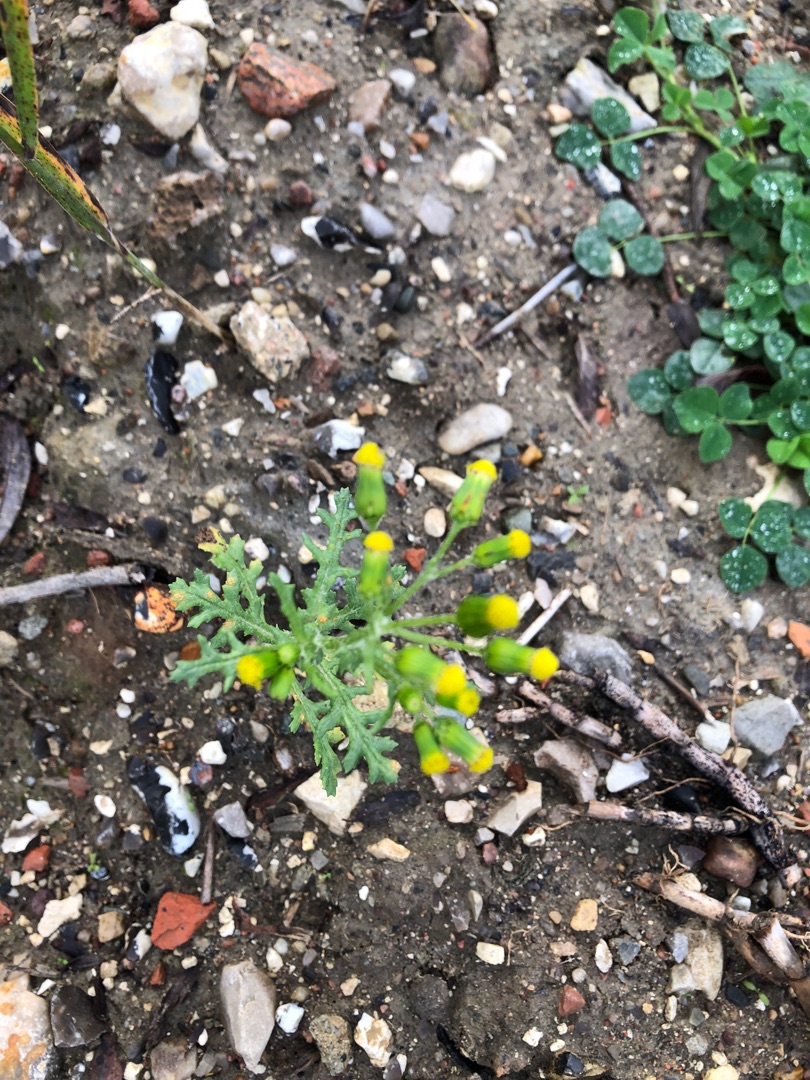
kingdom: Plantae
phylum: Tracheophyta
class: Magnoliopsida
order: Asterales
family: Asteraceae
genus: Senecio
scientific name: Senecio vulgaris
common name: Almindelig brandbæger
